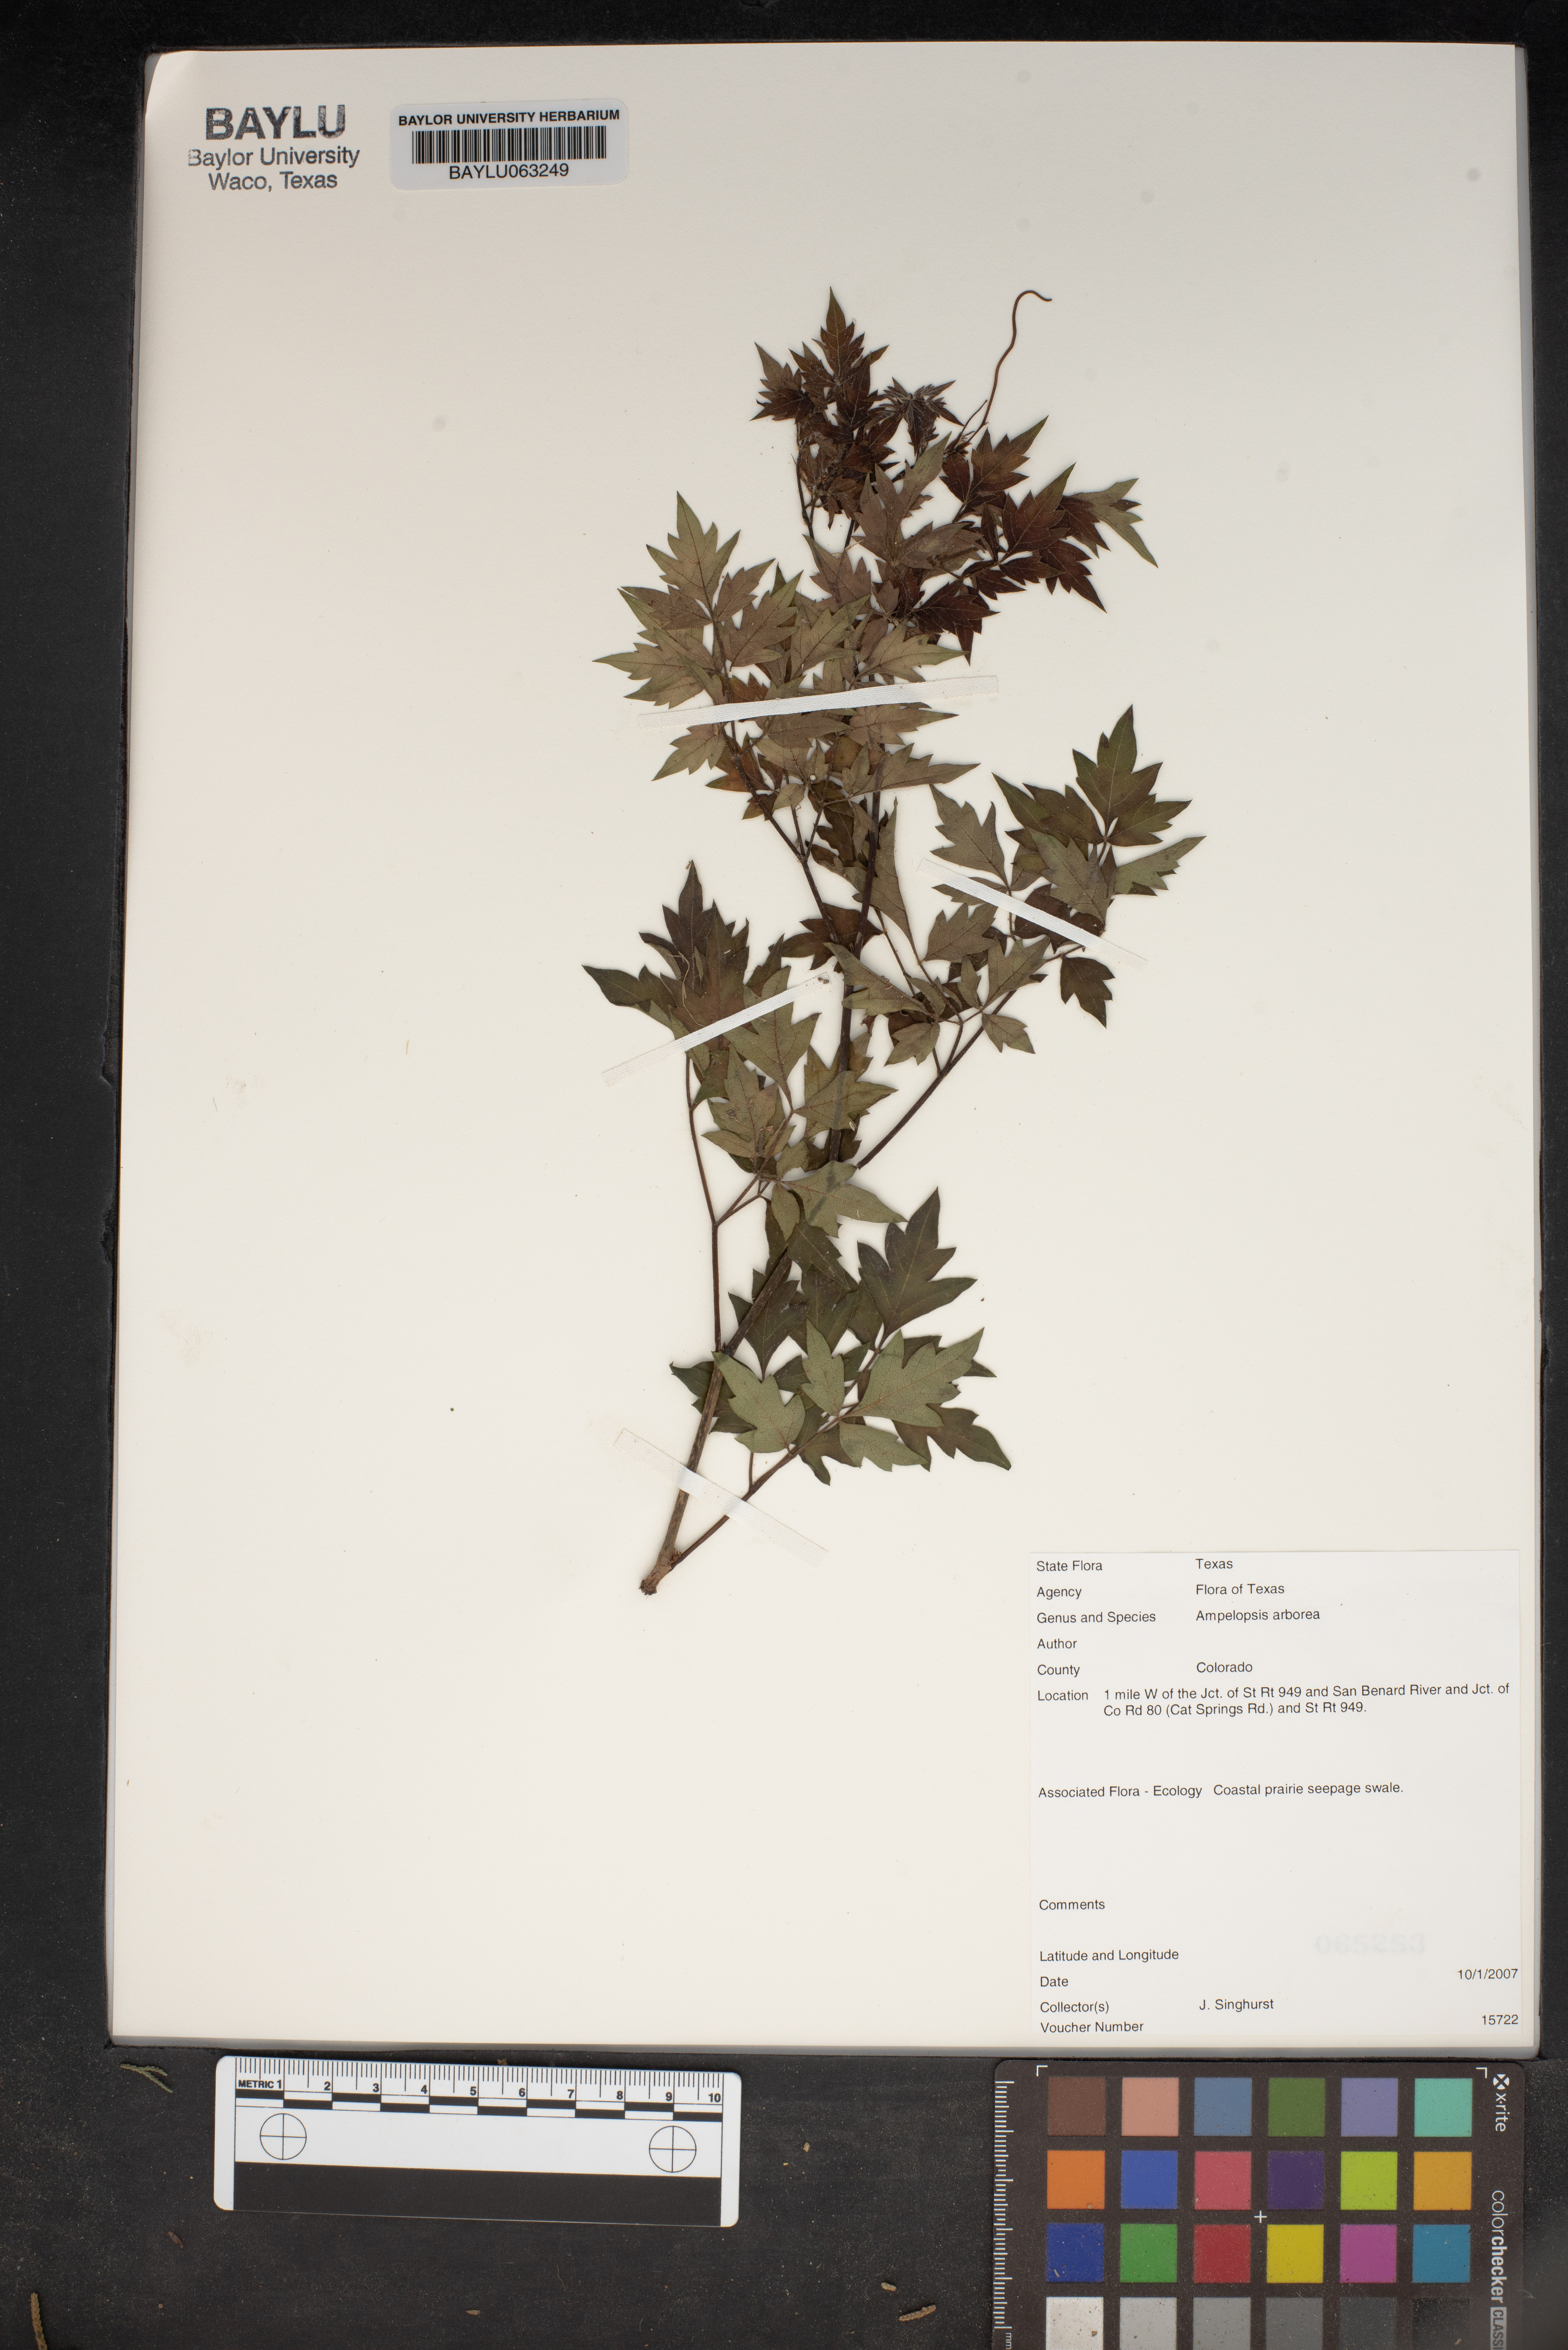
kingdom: Plantae
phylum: Tracheophyta
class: Magnoliopsida
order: Vitales
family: Vitaceae
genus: Nekemias
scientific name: Nekemias arborea
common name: Peppervine
